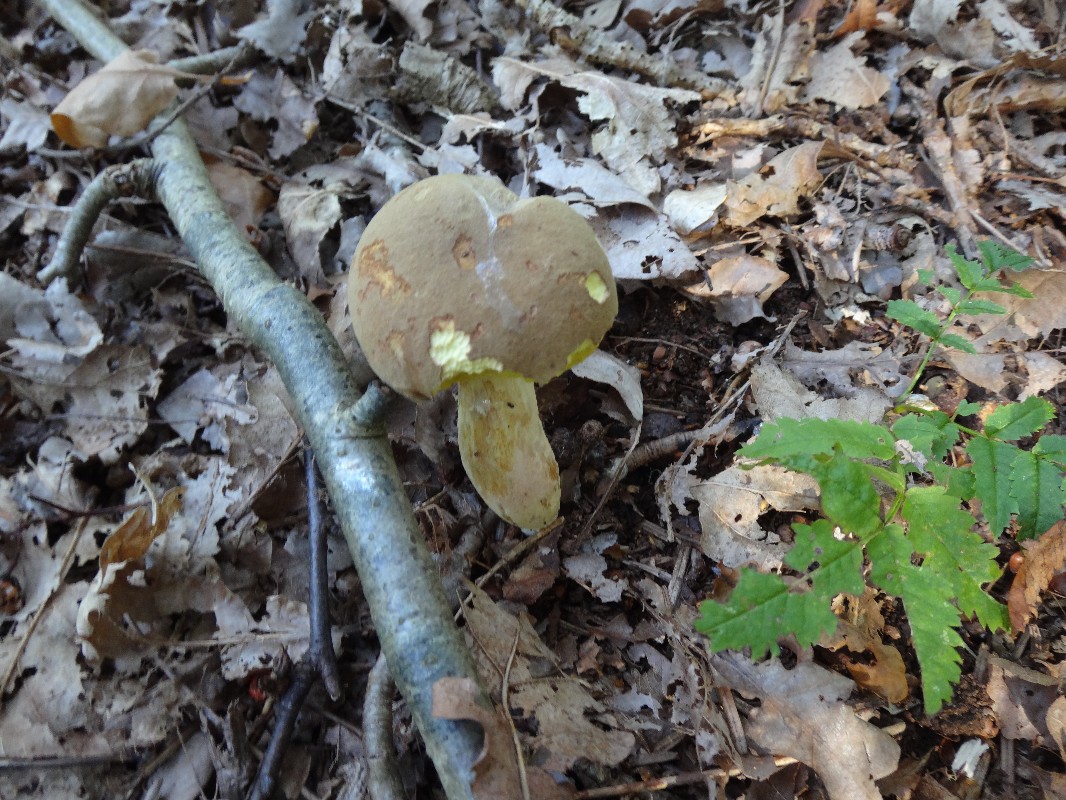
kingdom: Fungi
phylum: Basidiomycota
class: Agaricomycetes
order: Boletales
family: Boletaceae
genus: Xerocomus
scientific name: Xerocomus subtomentosus
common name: filtet rørhat
